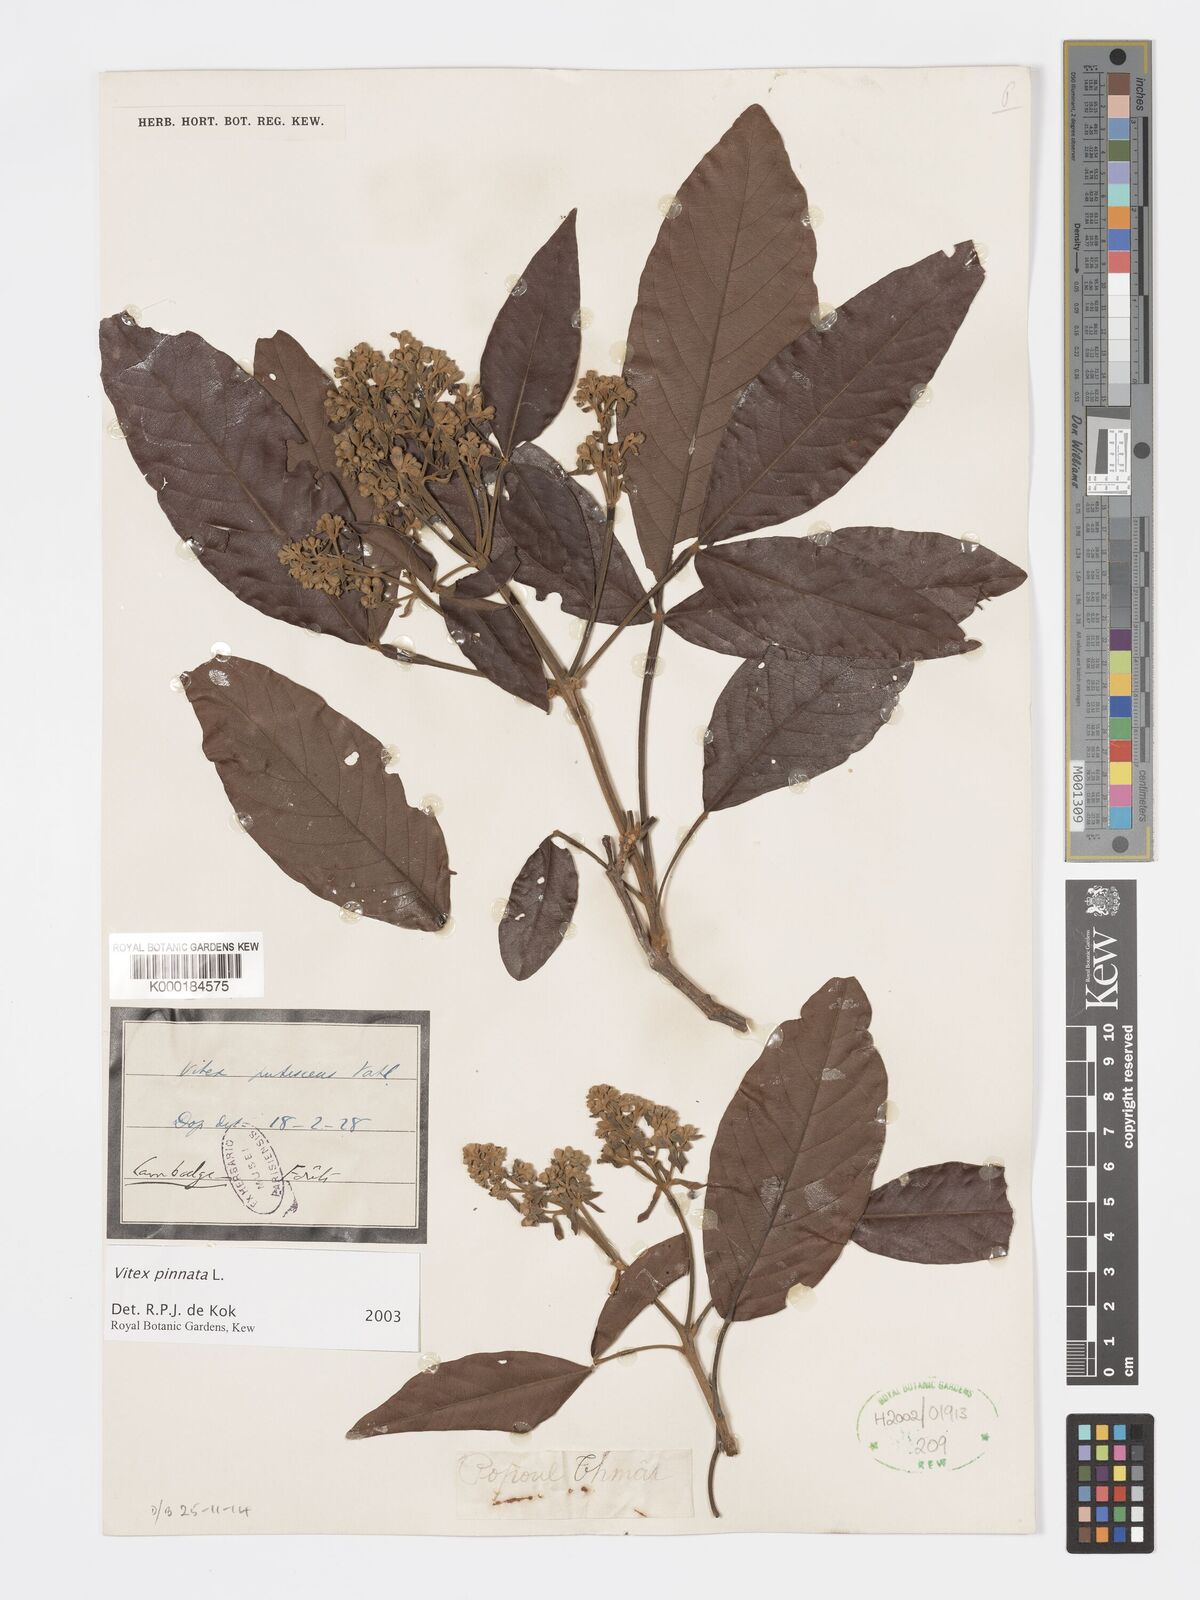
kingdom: Plantae
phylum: Tracheophyta
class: Magnoliopsida
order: Lamiales
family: Lamiaceae
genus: Vitex
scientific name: Vitex pinnata
